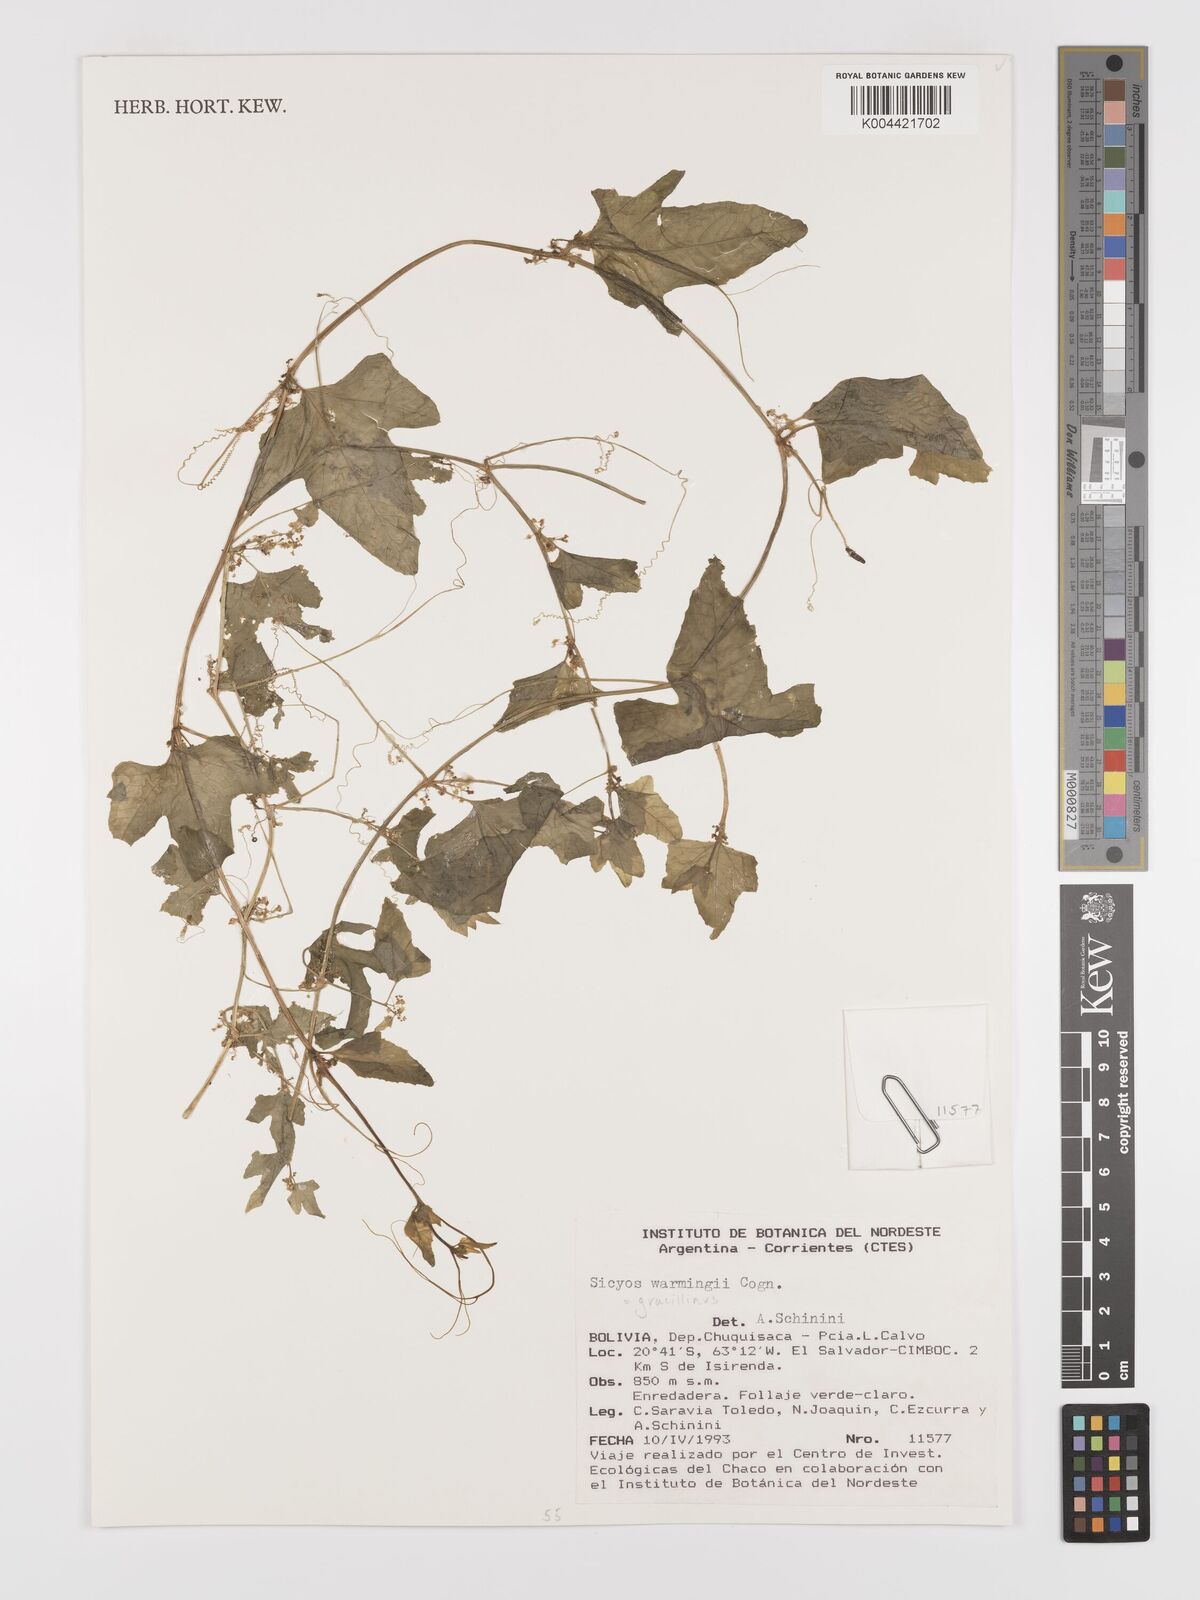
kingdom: Plantae
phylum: Tracheophyta
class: Magnoliopsida
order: Cucurbitales
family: Cucurbitaceae
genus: Sicyos
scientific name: Sicyos gracillimus
